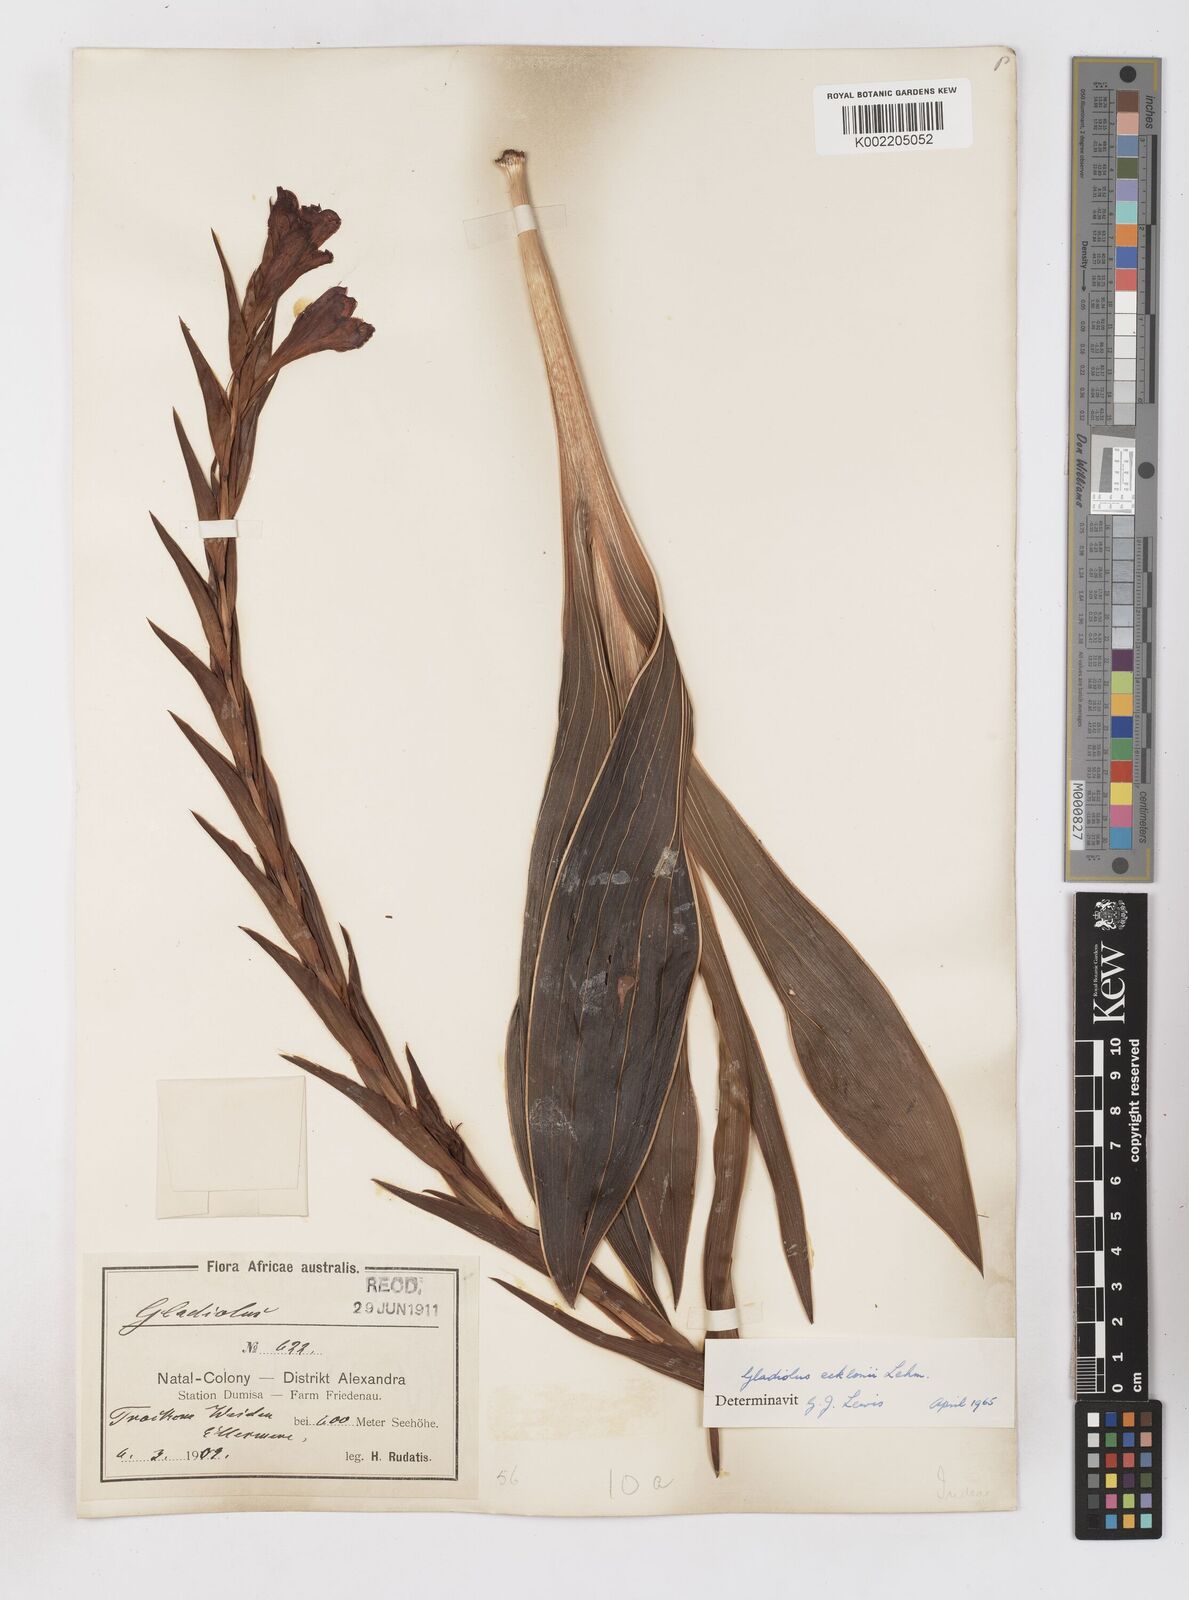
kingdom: Plantae
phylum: Tracheophyta
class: Liliopsida
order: Asparagales
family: Iridaceae
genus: Gladiolus
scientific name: Gladiolus ecklonii
